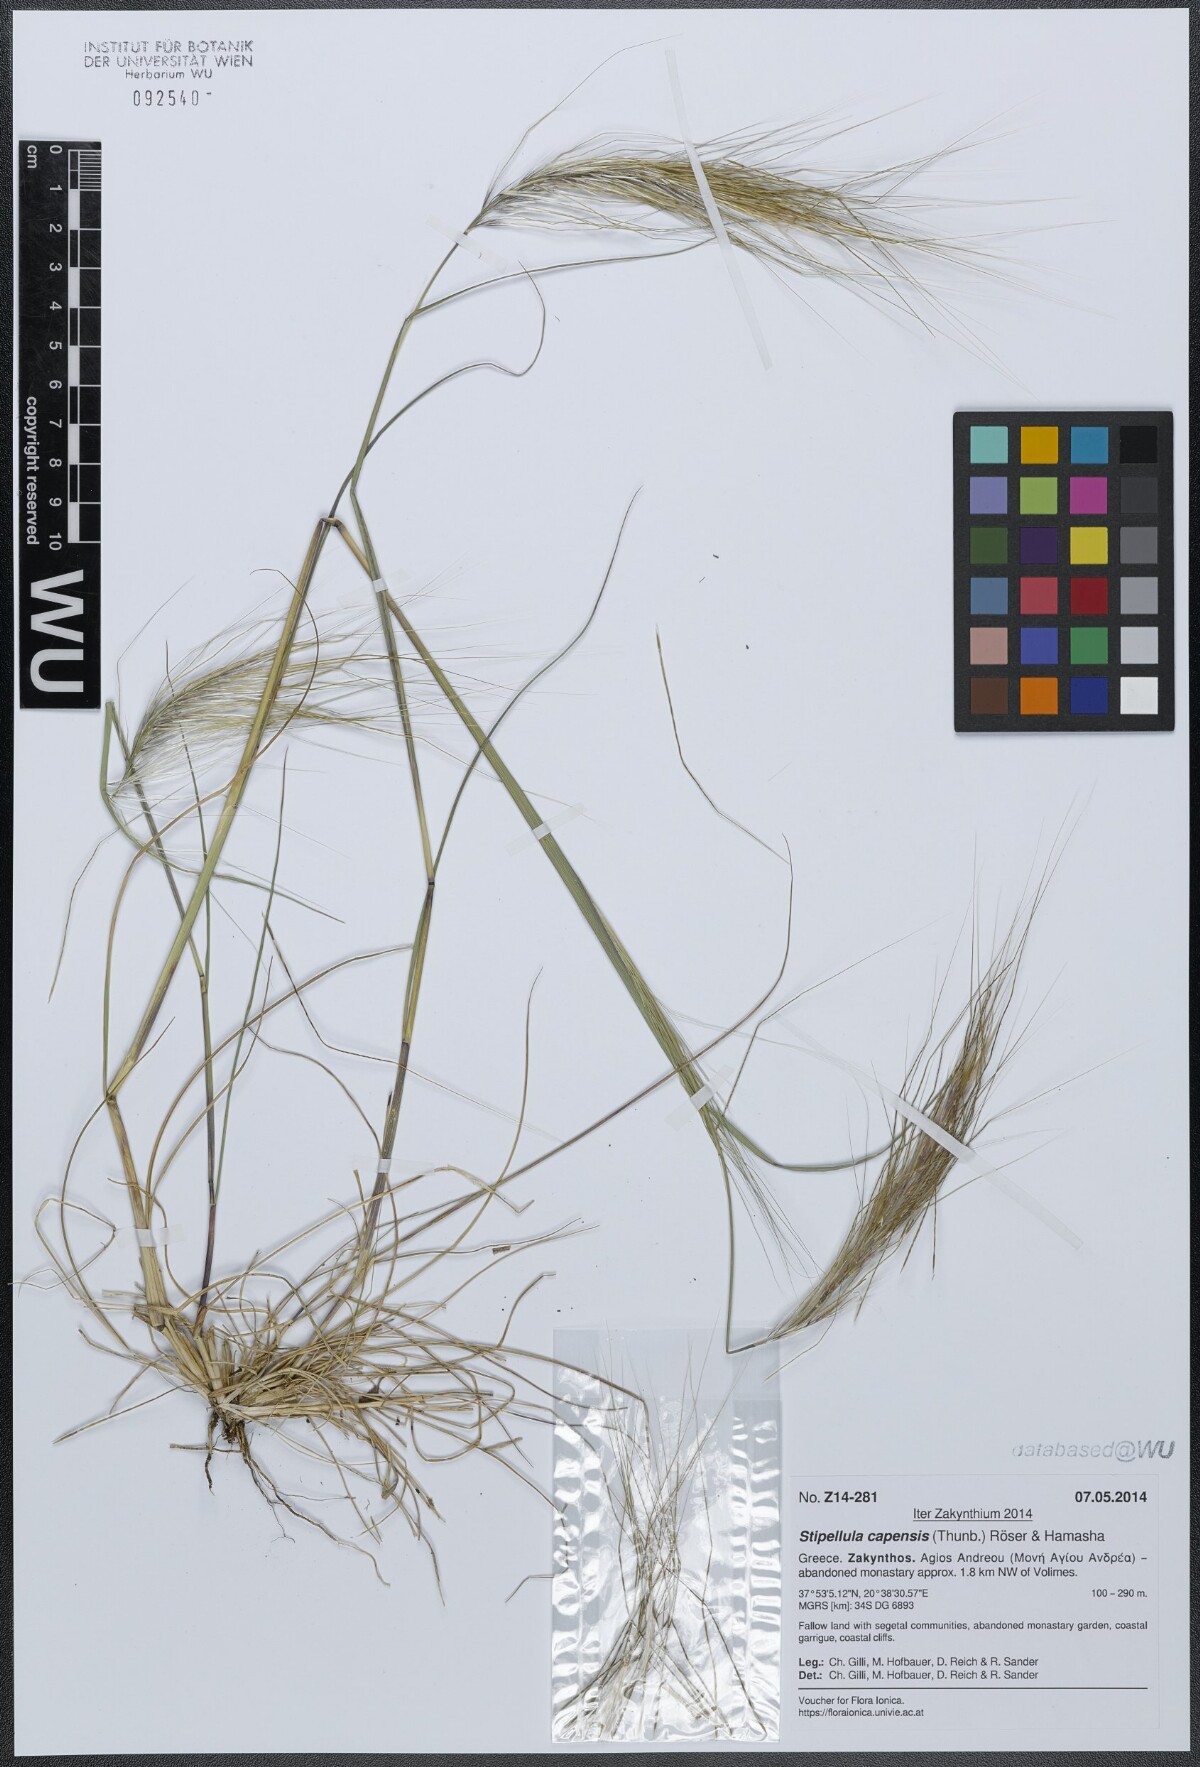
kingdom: Plantae
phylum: Tracheophyta
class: Liliopsida
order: Poales
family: Poaceae
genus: Stipellula
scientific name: Stipellula capensis
